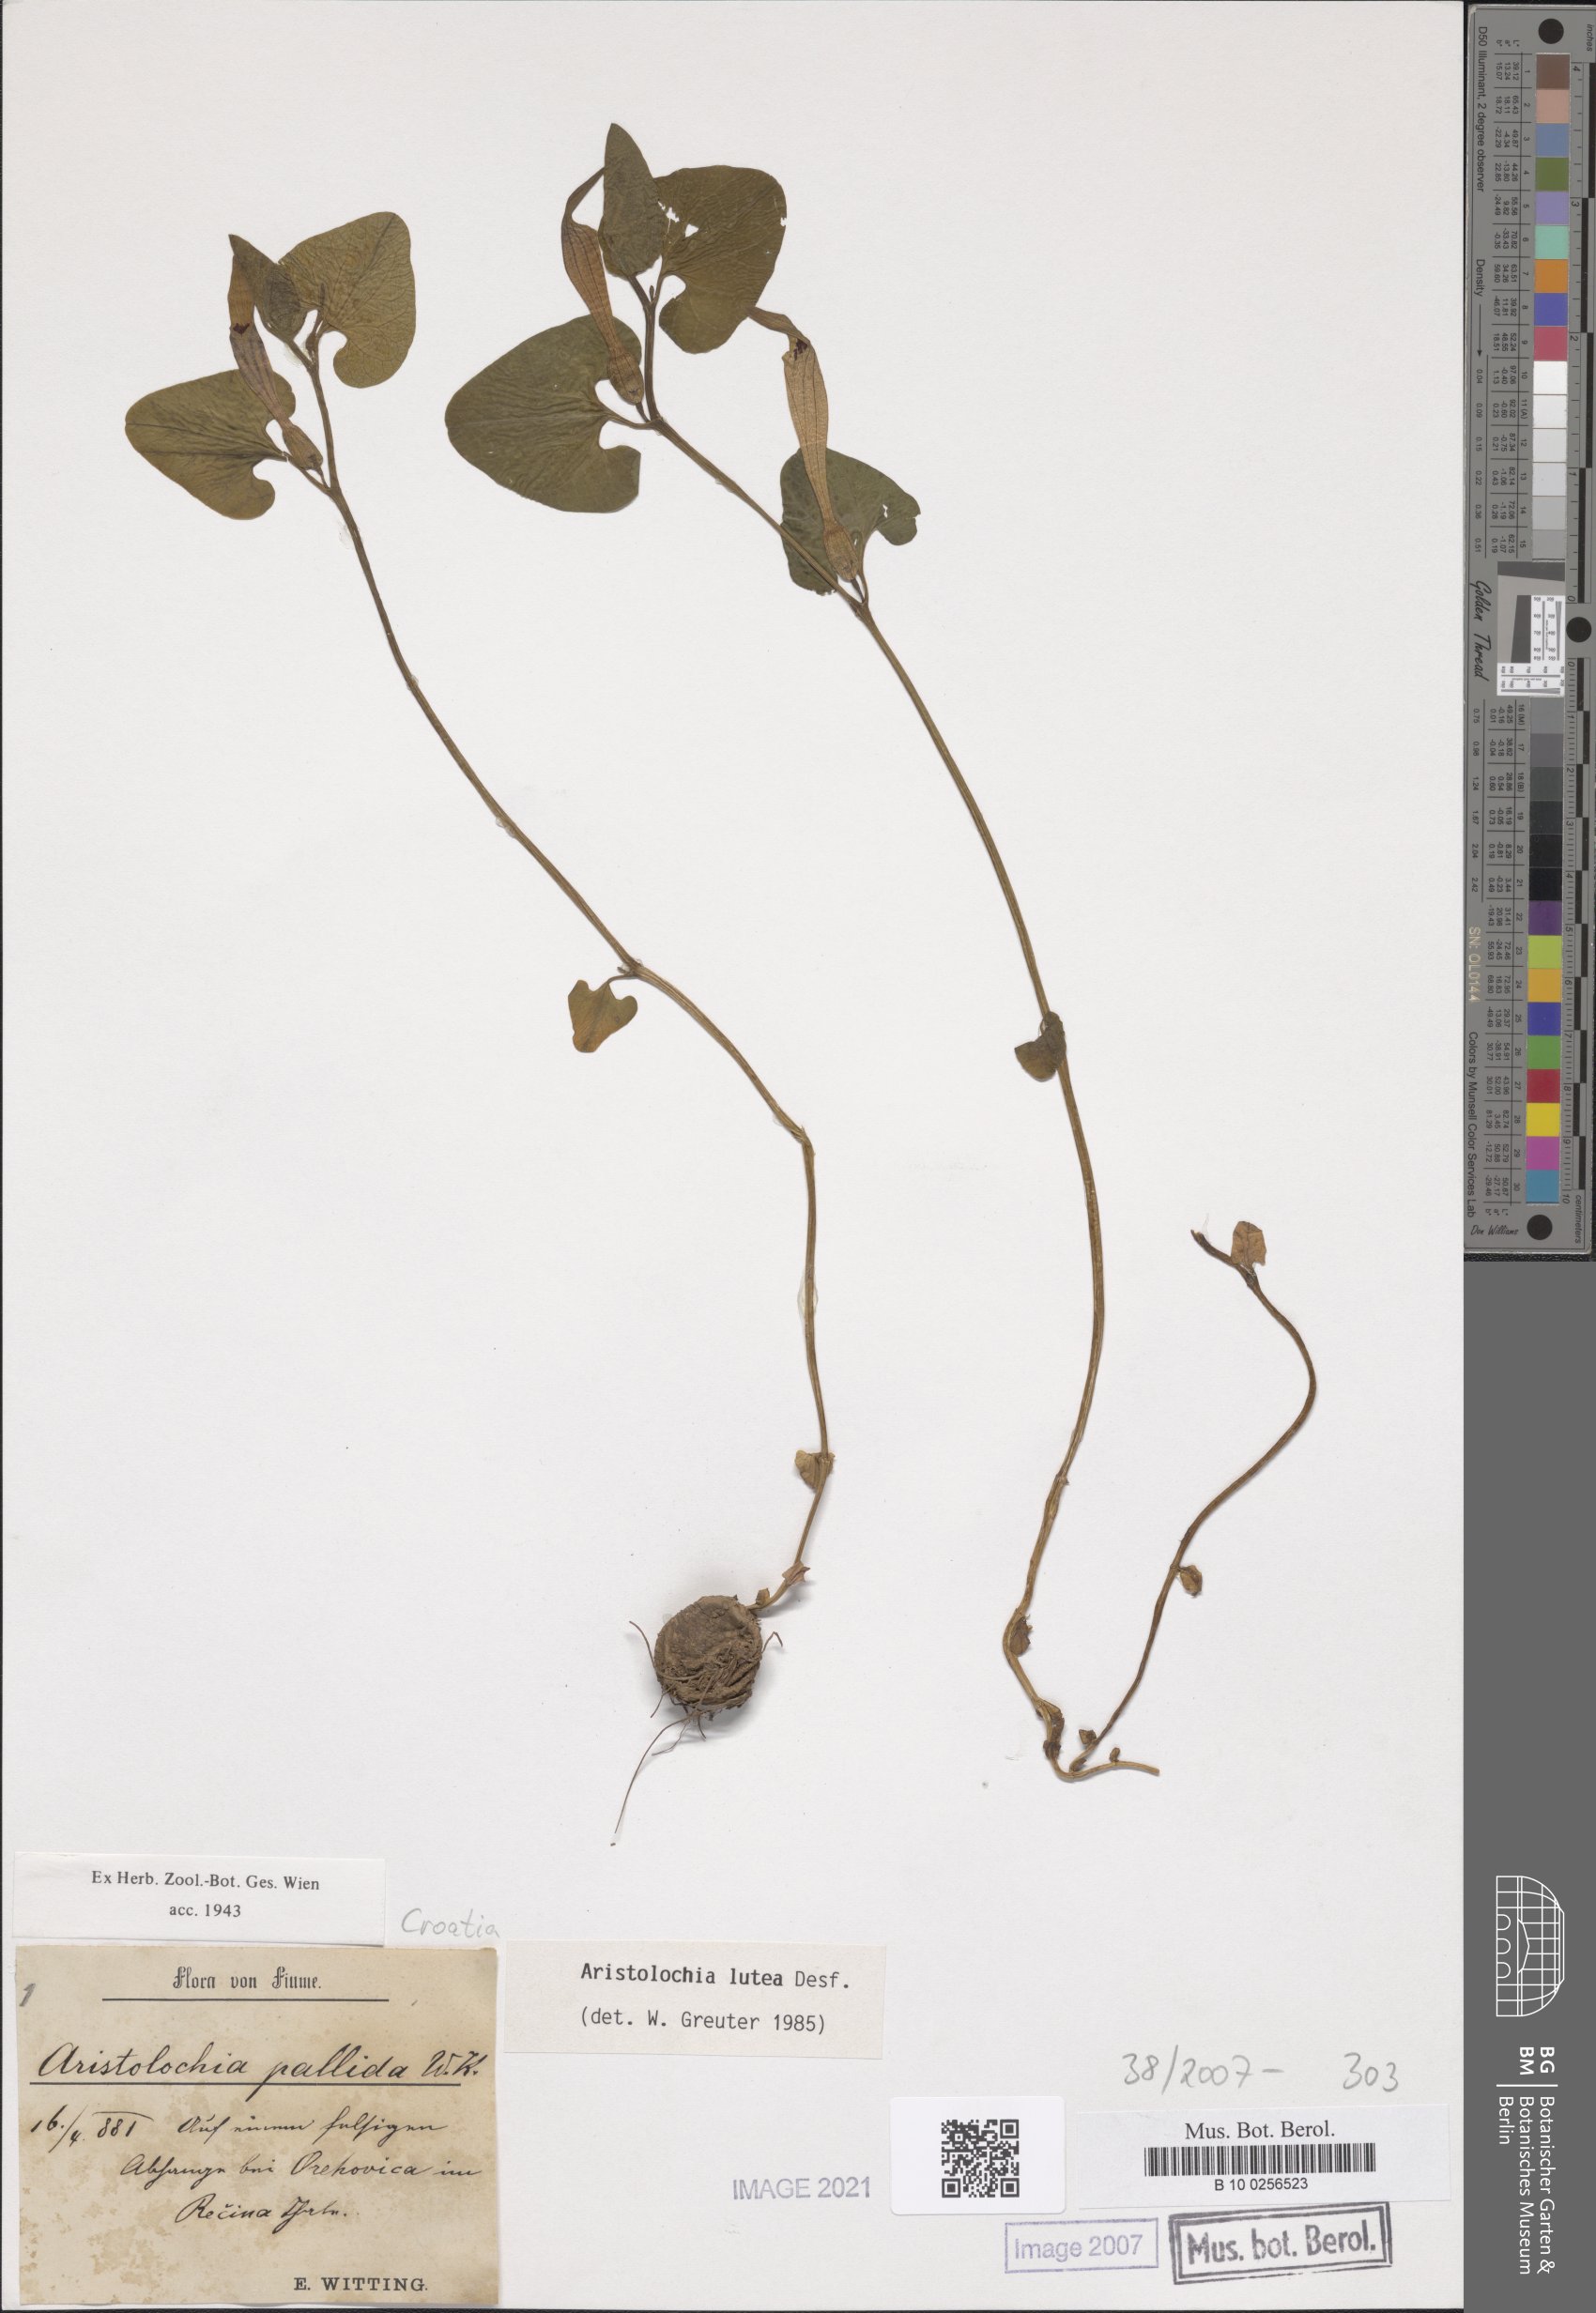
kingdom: Plantae
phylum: Tracheophyta
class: Magnoliopsida
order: Piperales
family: Aristolochiaceae
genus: Aristolochia
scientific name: Aristolochia lutea
